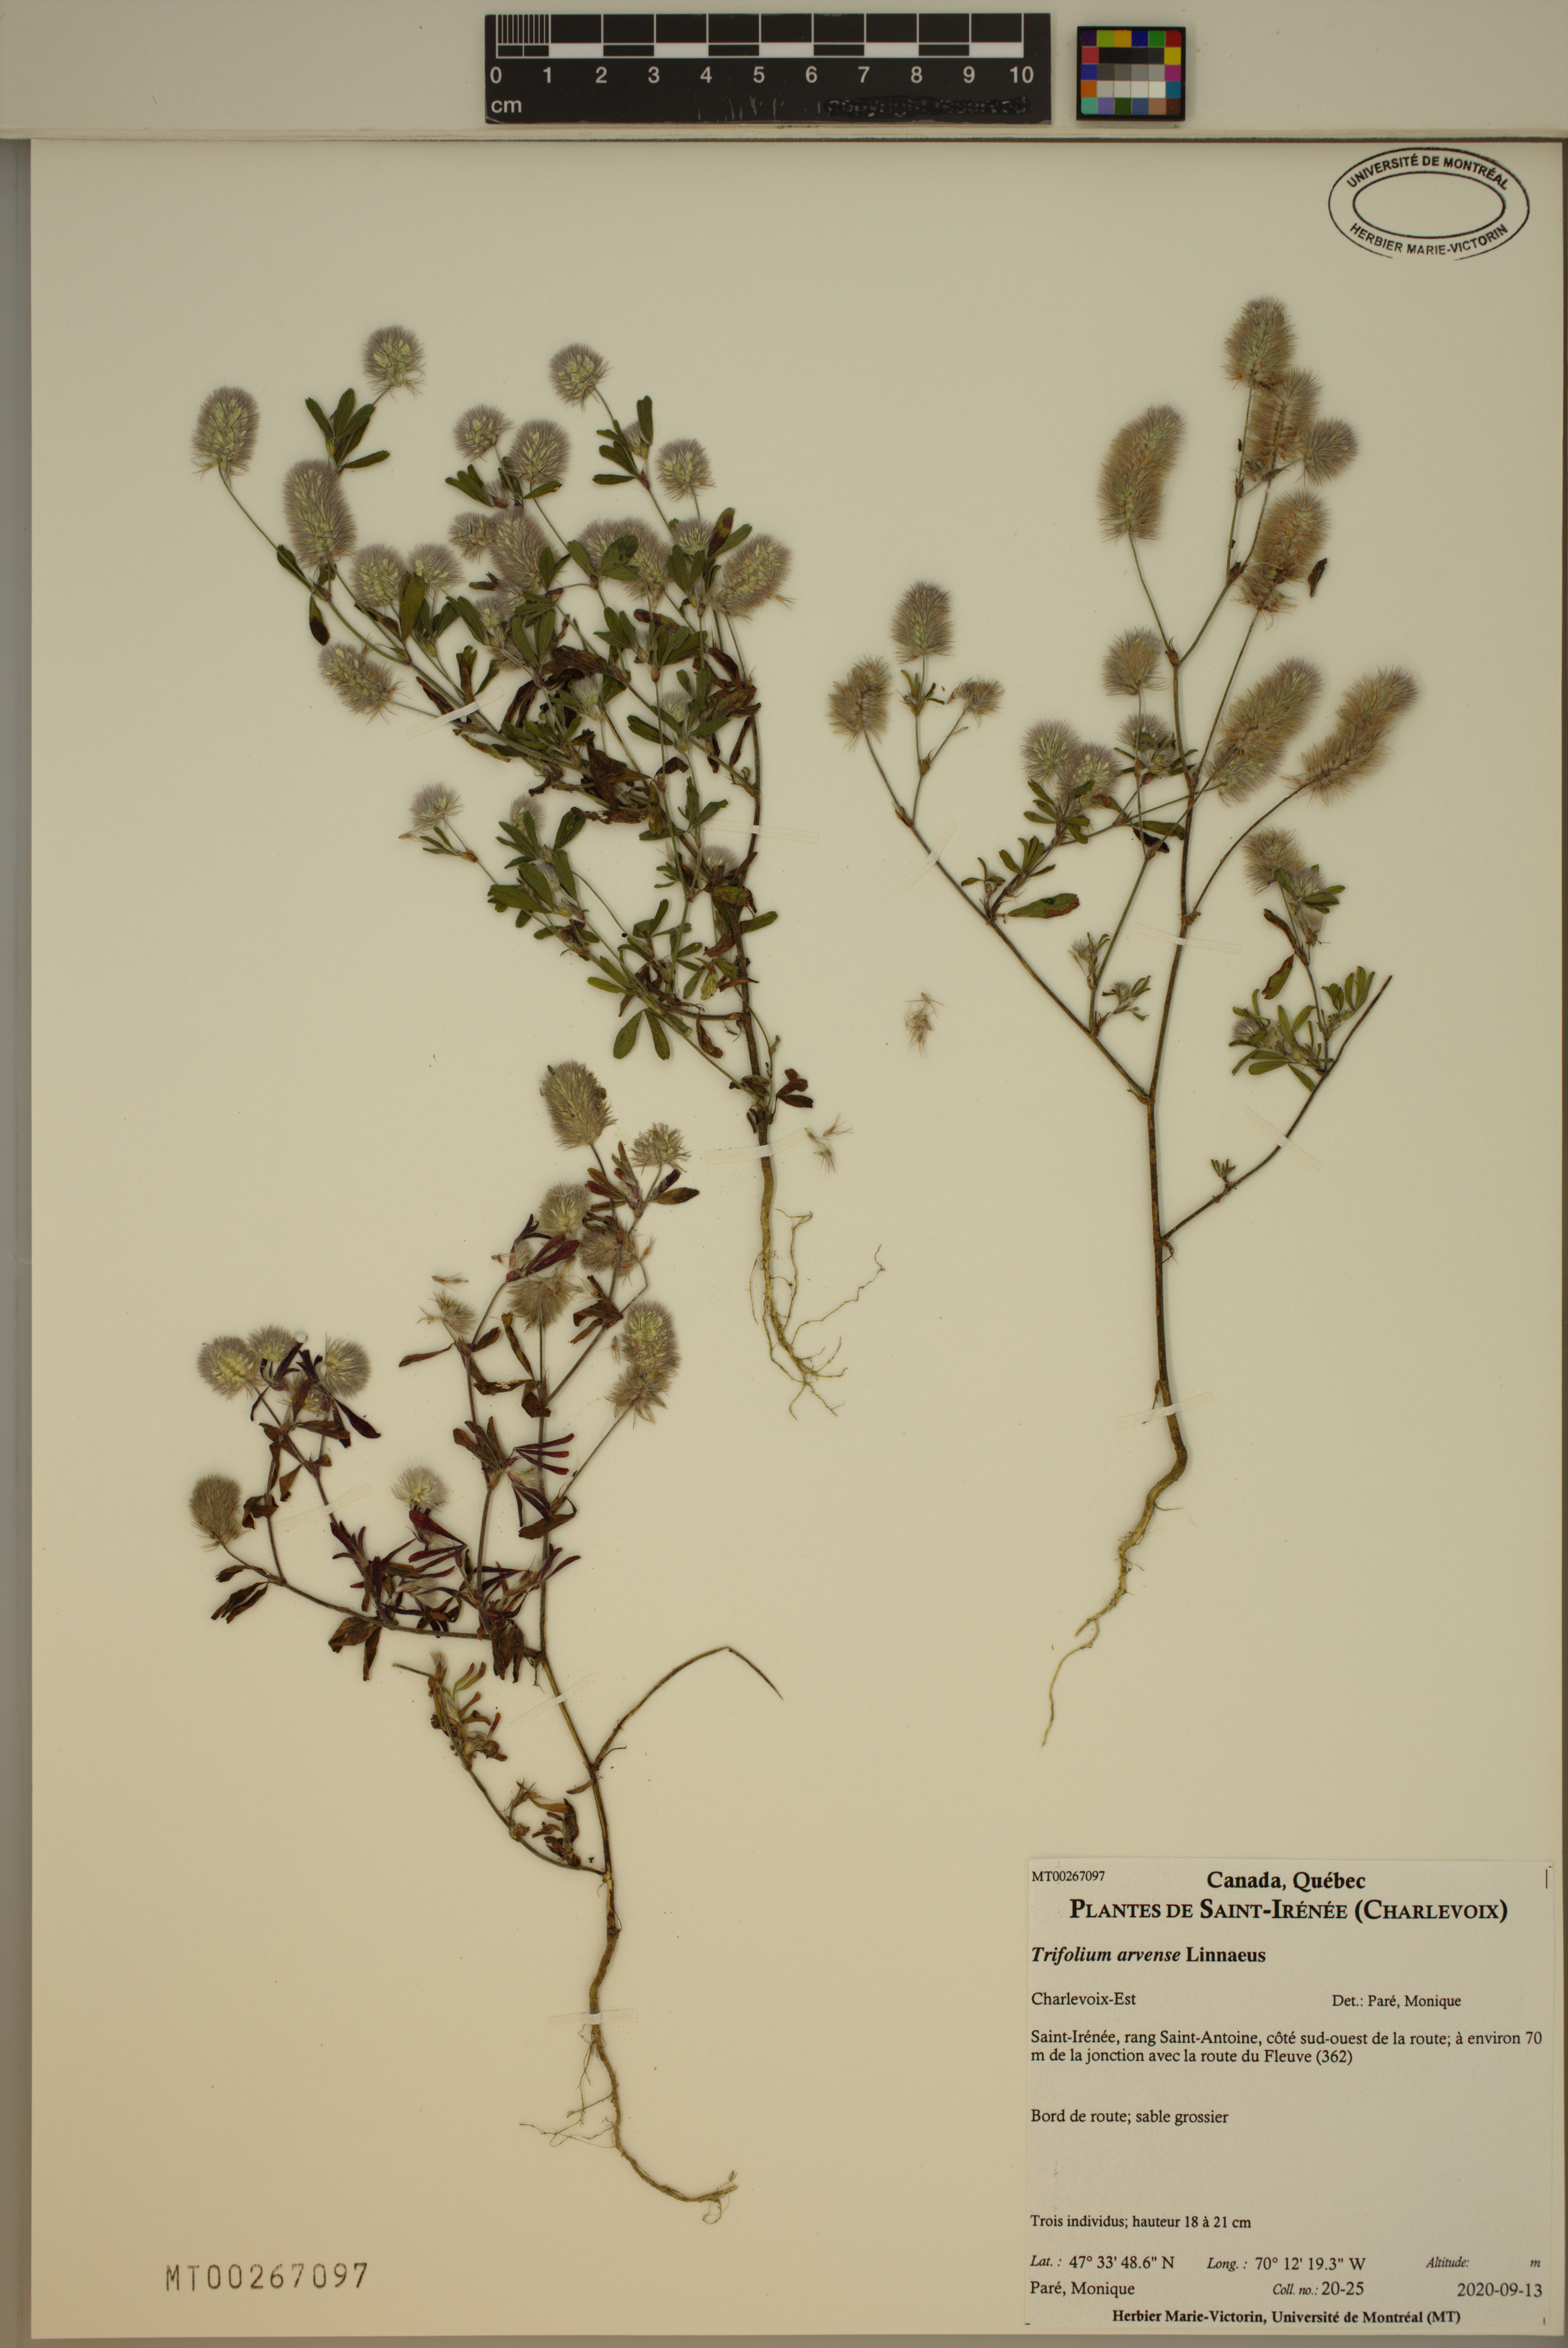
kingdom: Plantae
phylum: Tracheophyta
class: Magnoliopsida
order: Fabales
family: Fabaceae
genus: Trifolium
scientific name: Trifolium arvense
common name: Hare's-foot clover
